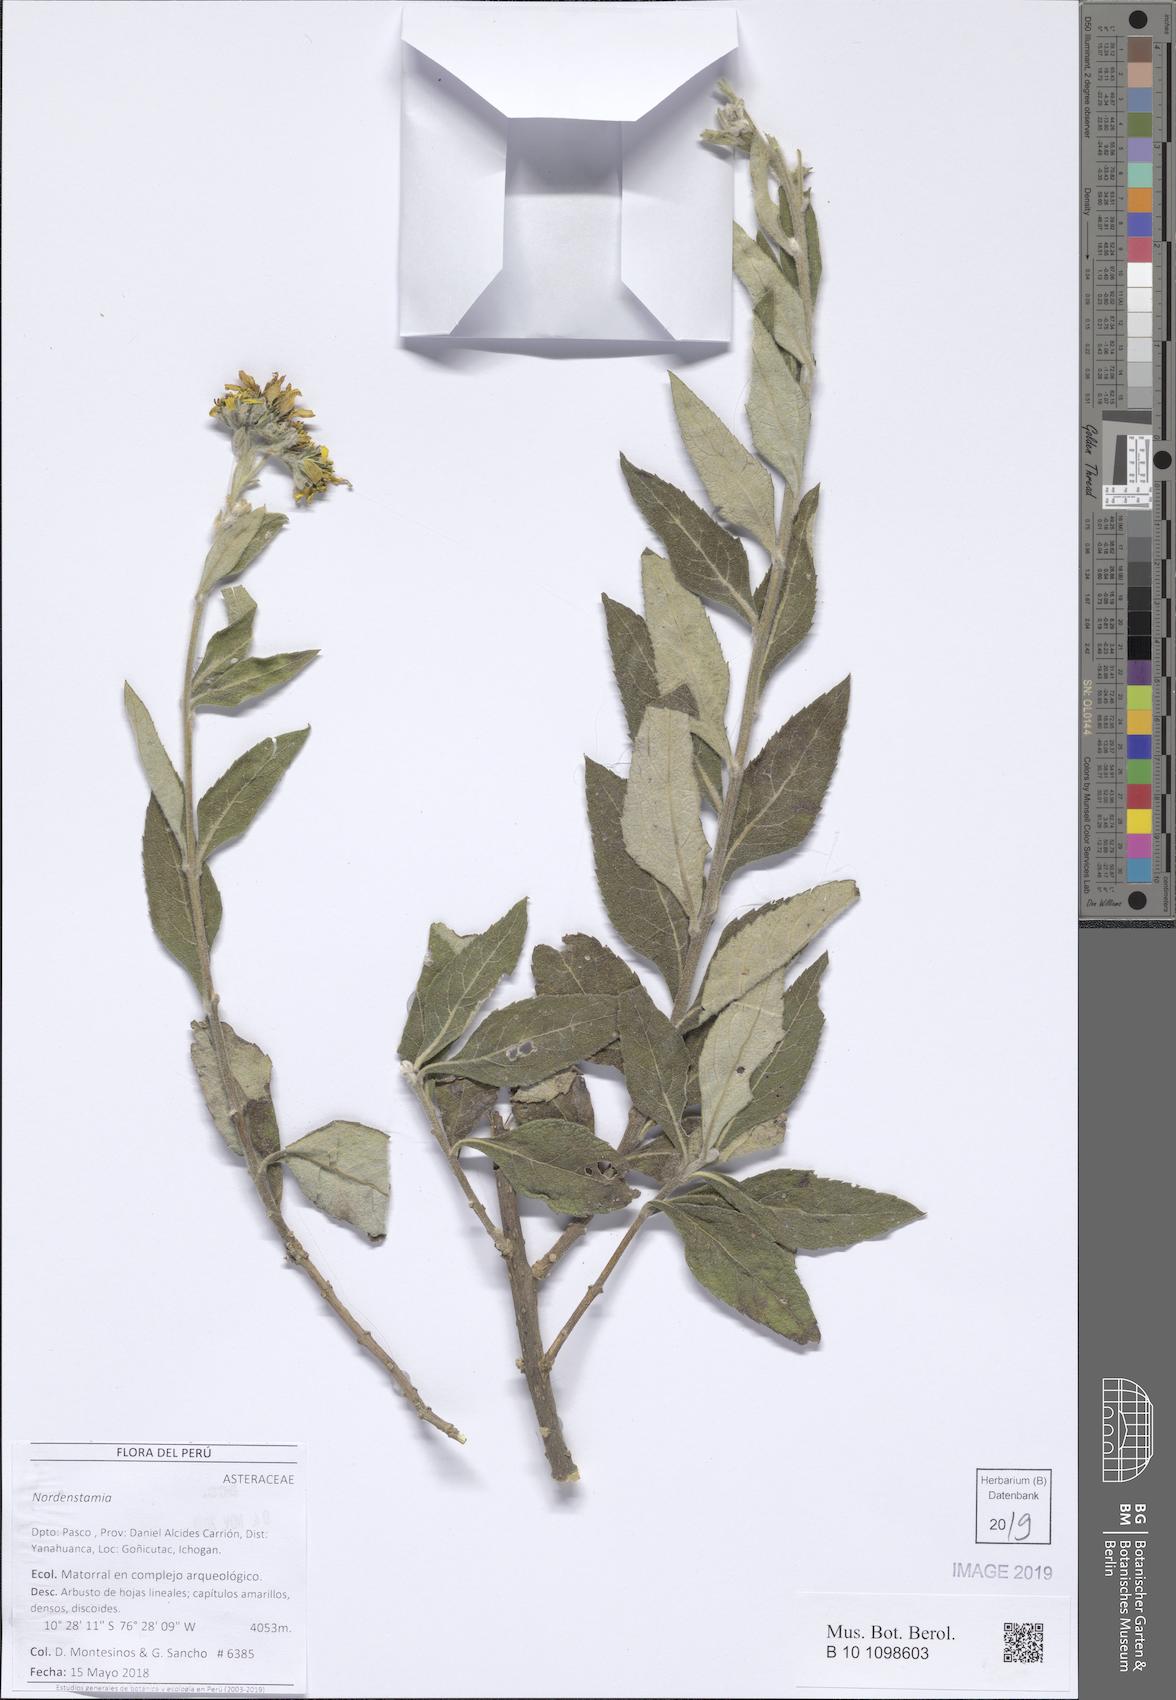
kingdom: Plantae
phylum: Tracheophyta
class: Magnoliopsida
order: Asterales
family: Asteraceae
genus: Nordenstamia
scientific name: Nordenstamia
